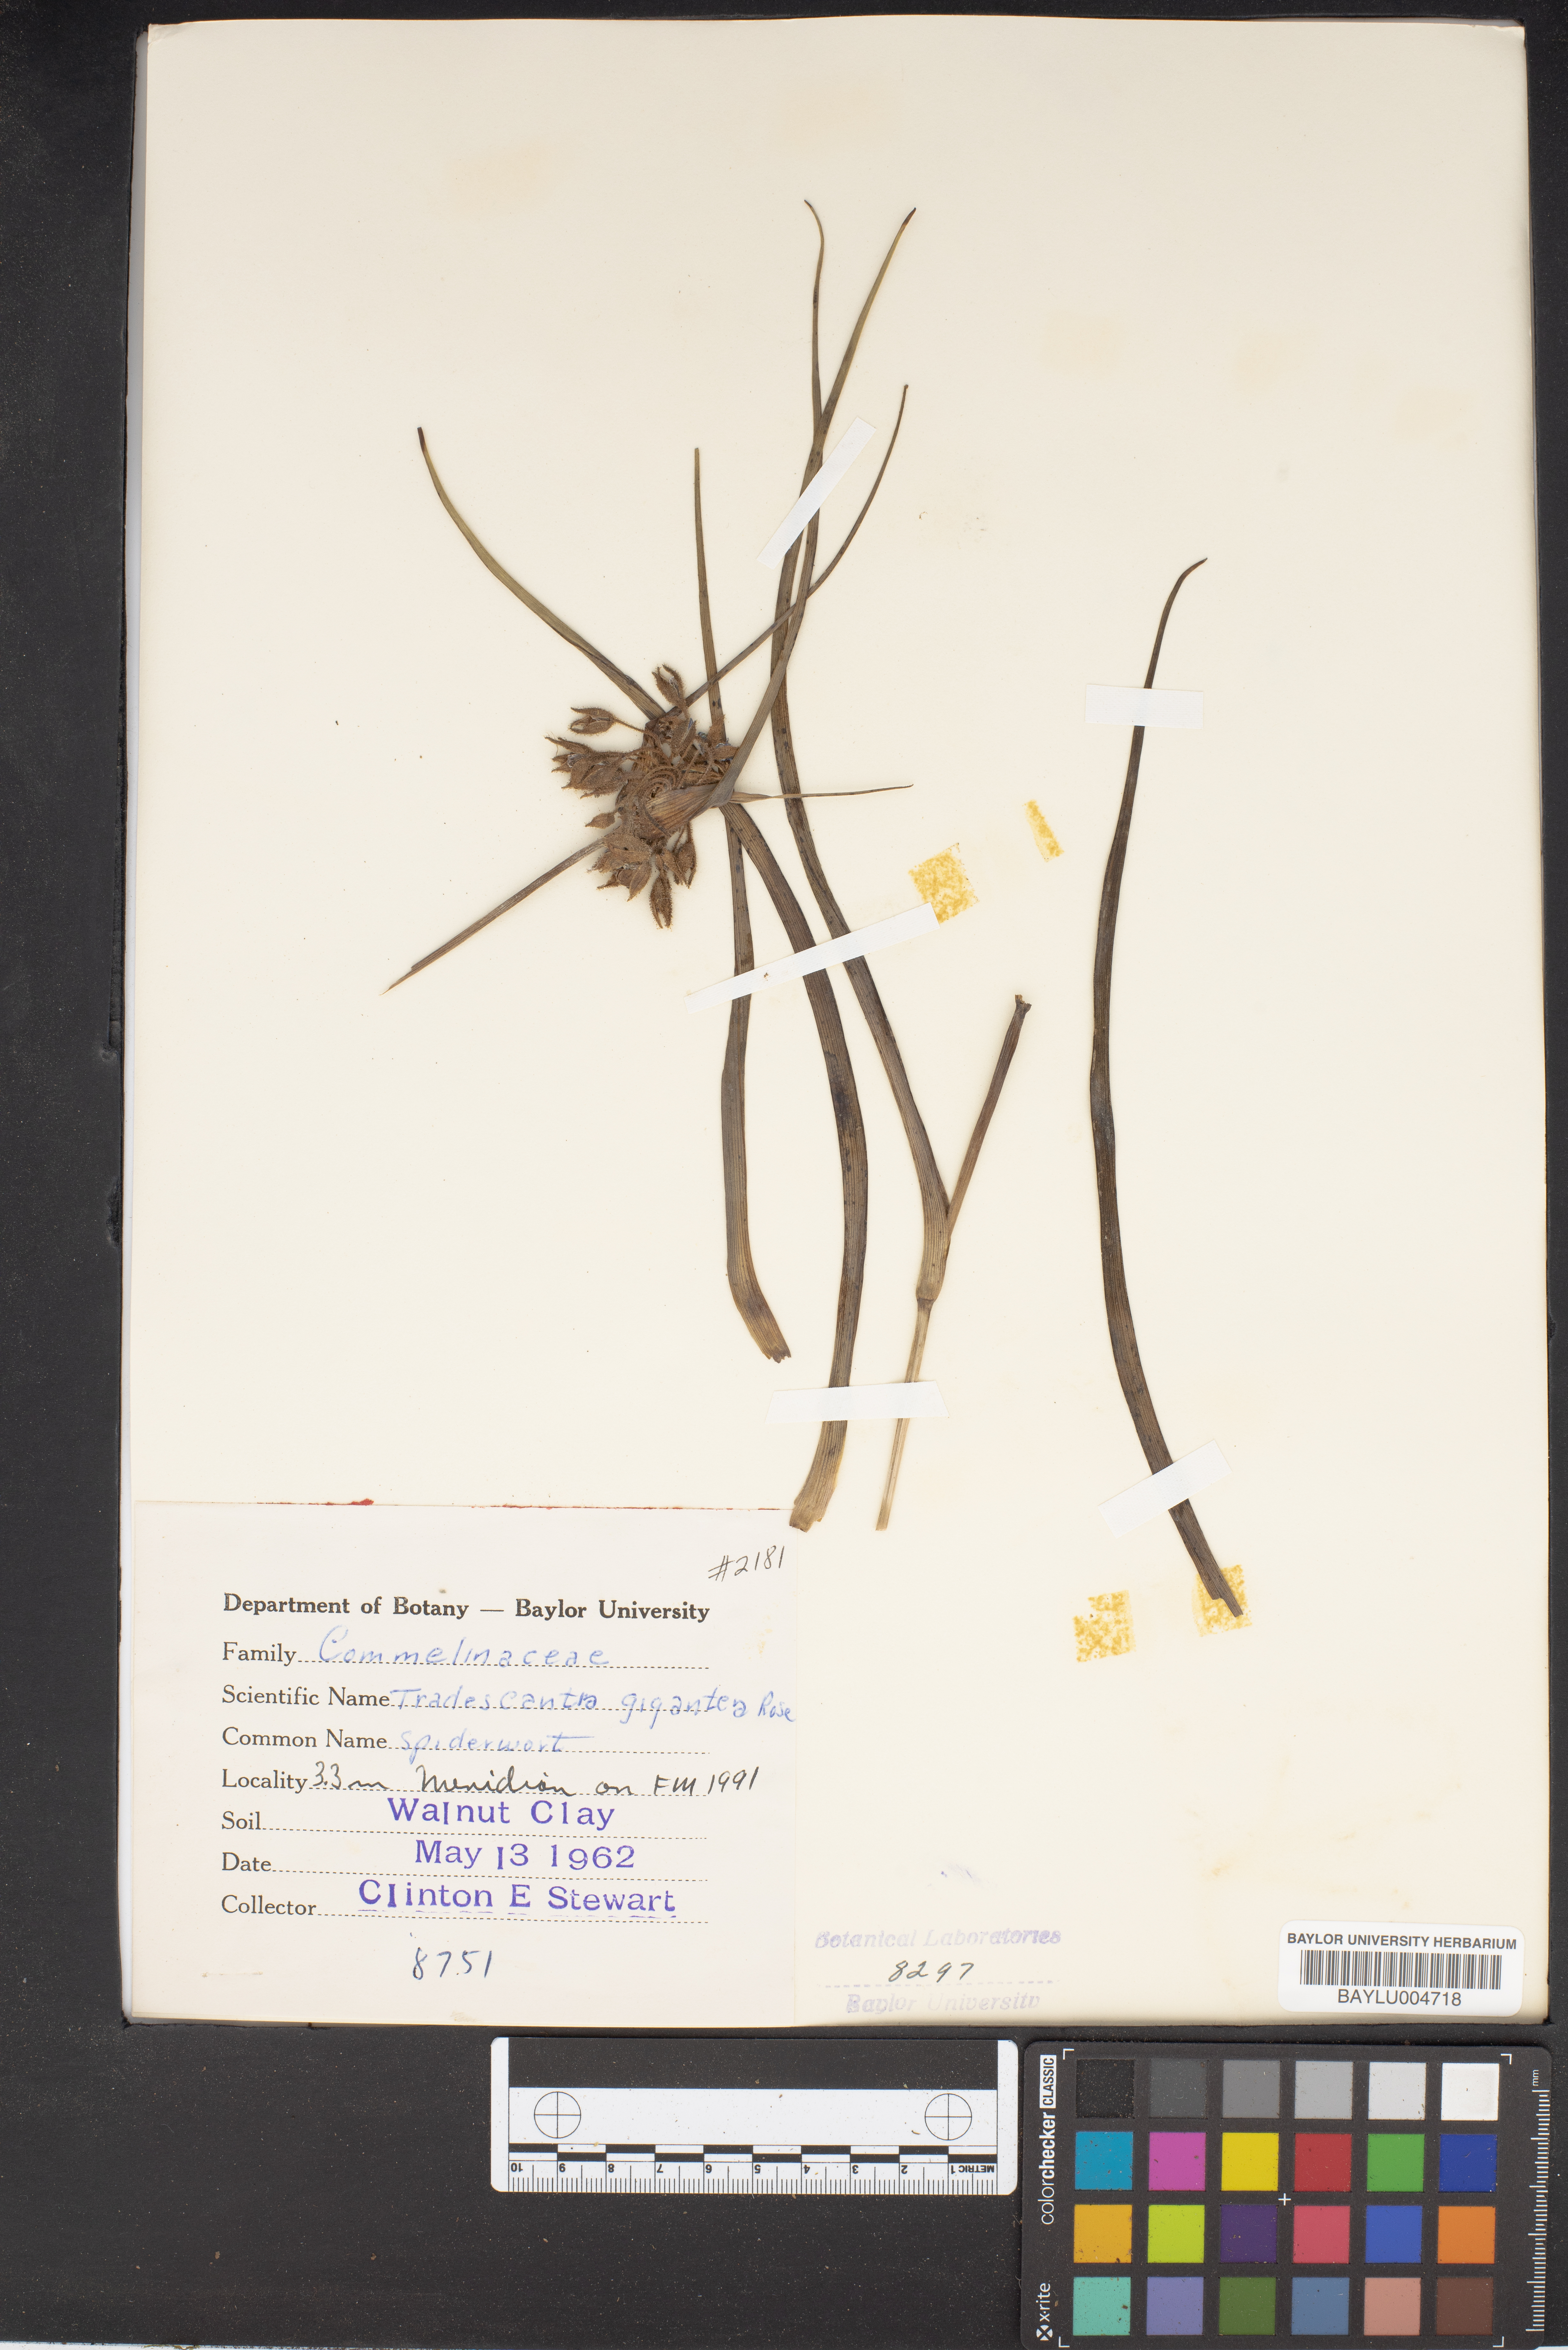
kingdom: Plantae
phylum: Tracheophyta
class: Liliopsida
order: Commelinales
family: Commelinaceae
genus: Tradescantia
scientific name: Tradescantia gigantea
